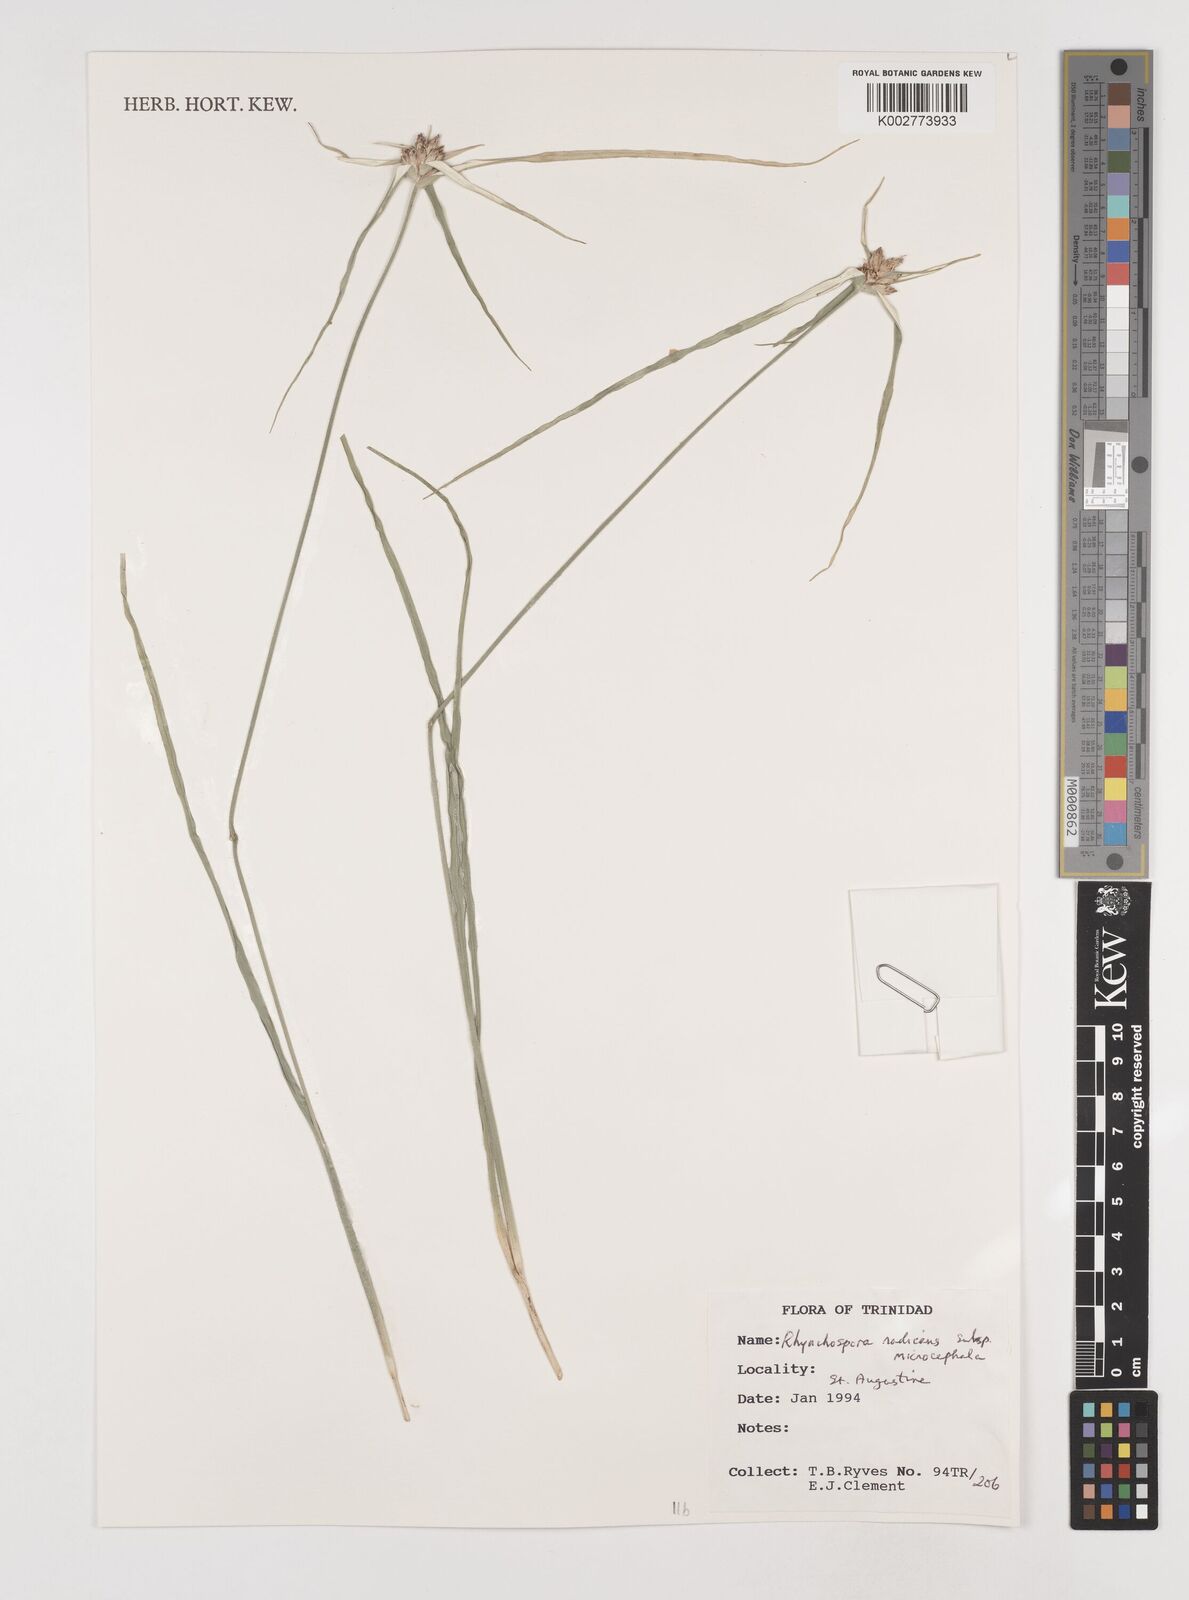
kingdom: Plantae
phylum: Tracheophyta
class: Liliopsida
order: Poales
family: Cyperaceae
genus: Rhynchospora
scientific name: Rhynchospora radicans
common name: Tropical whitetop
